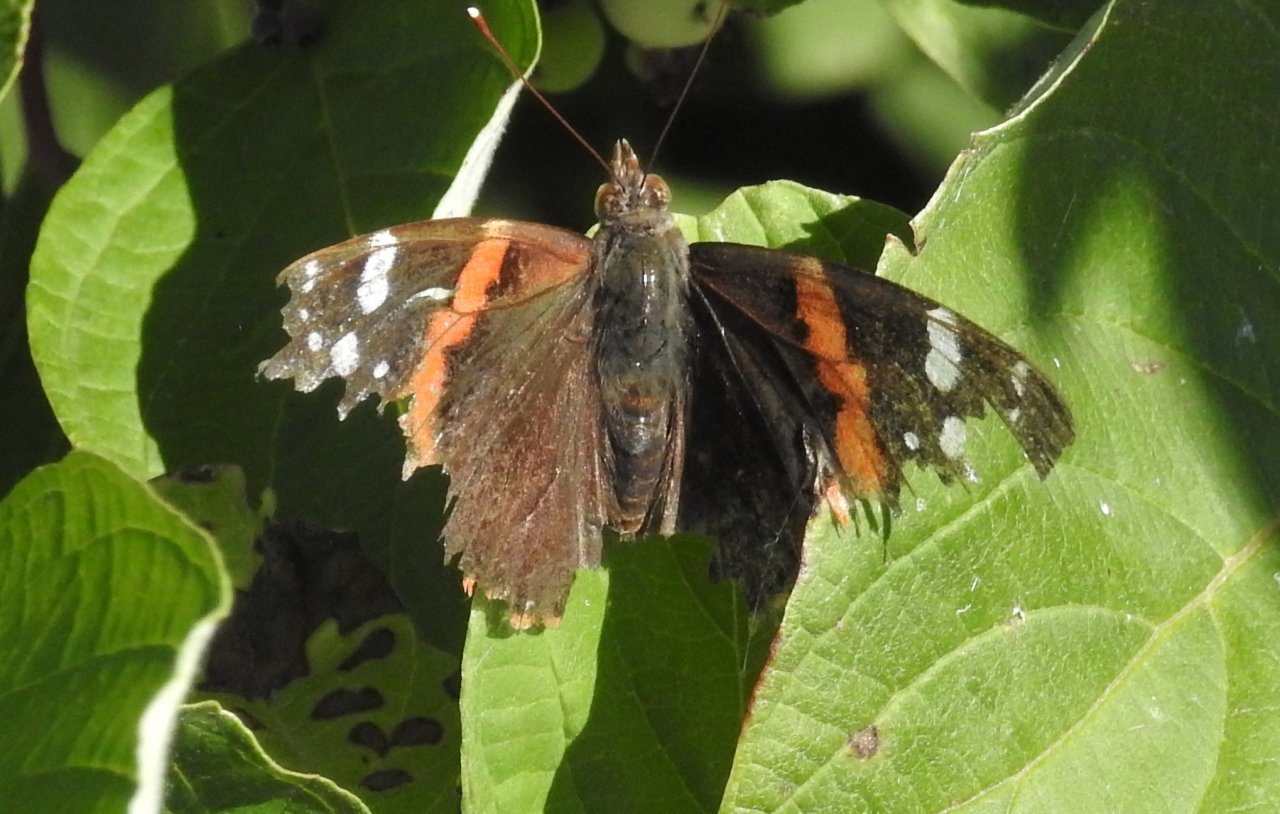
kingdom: Animalia
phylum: Arthropoda
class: Insecta
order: Lepidoptera
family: Nymphalidae
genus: Vanessa
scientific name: Vanessa atalanta
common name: Red Admiral
